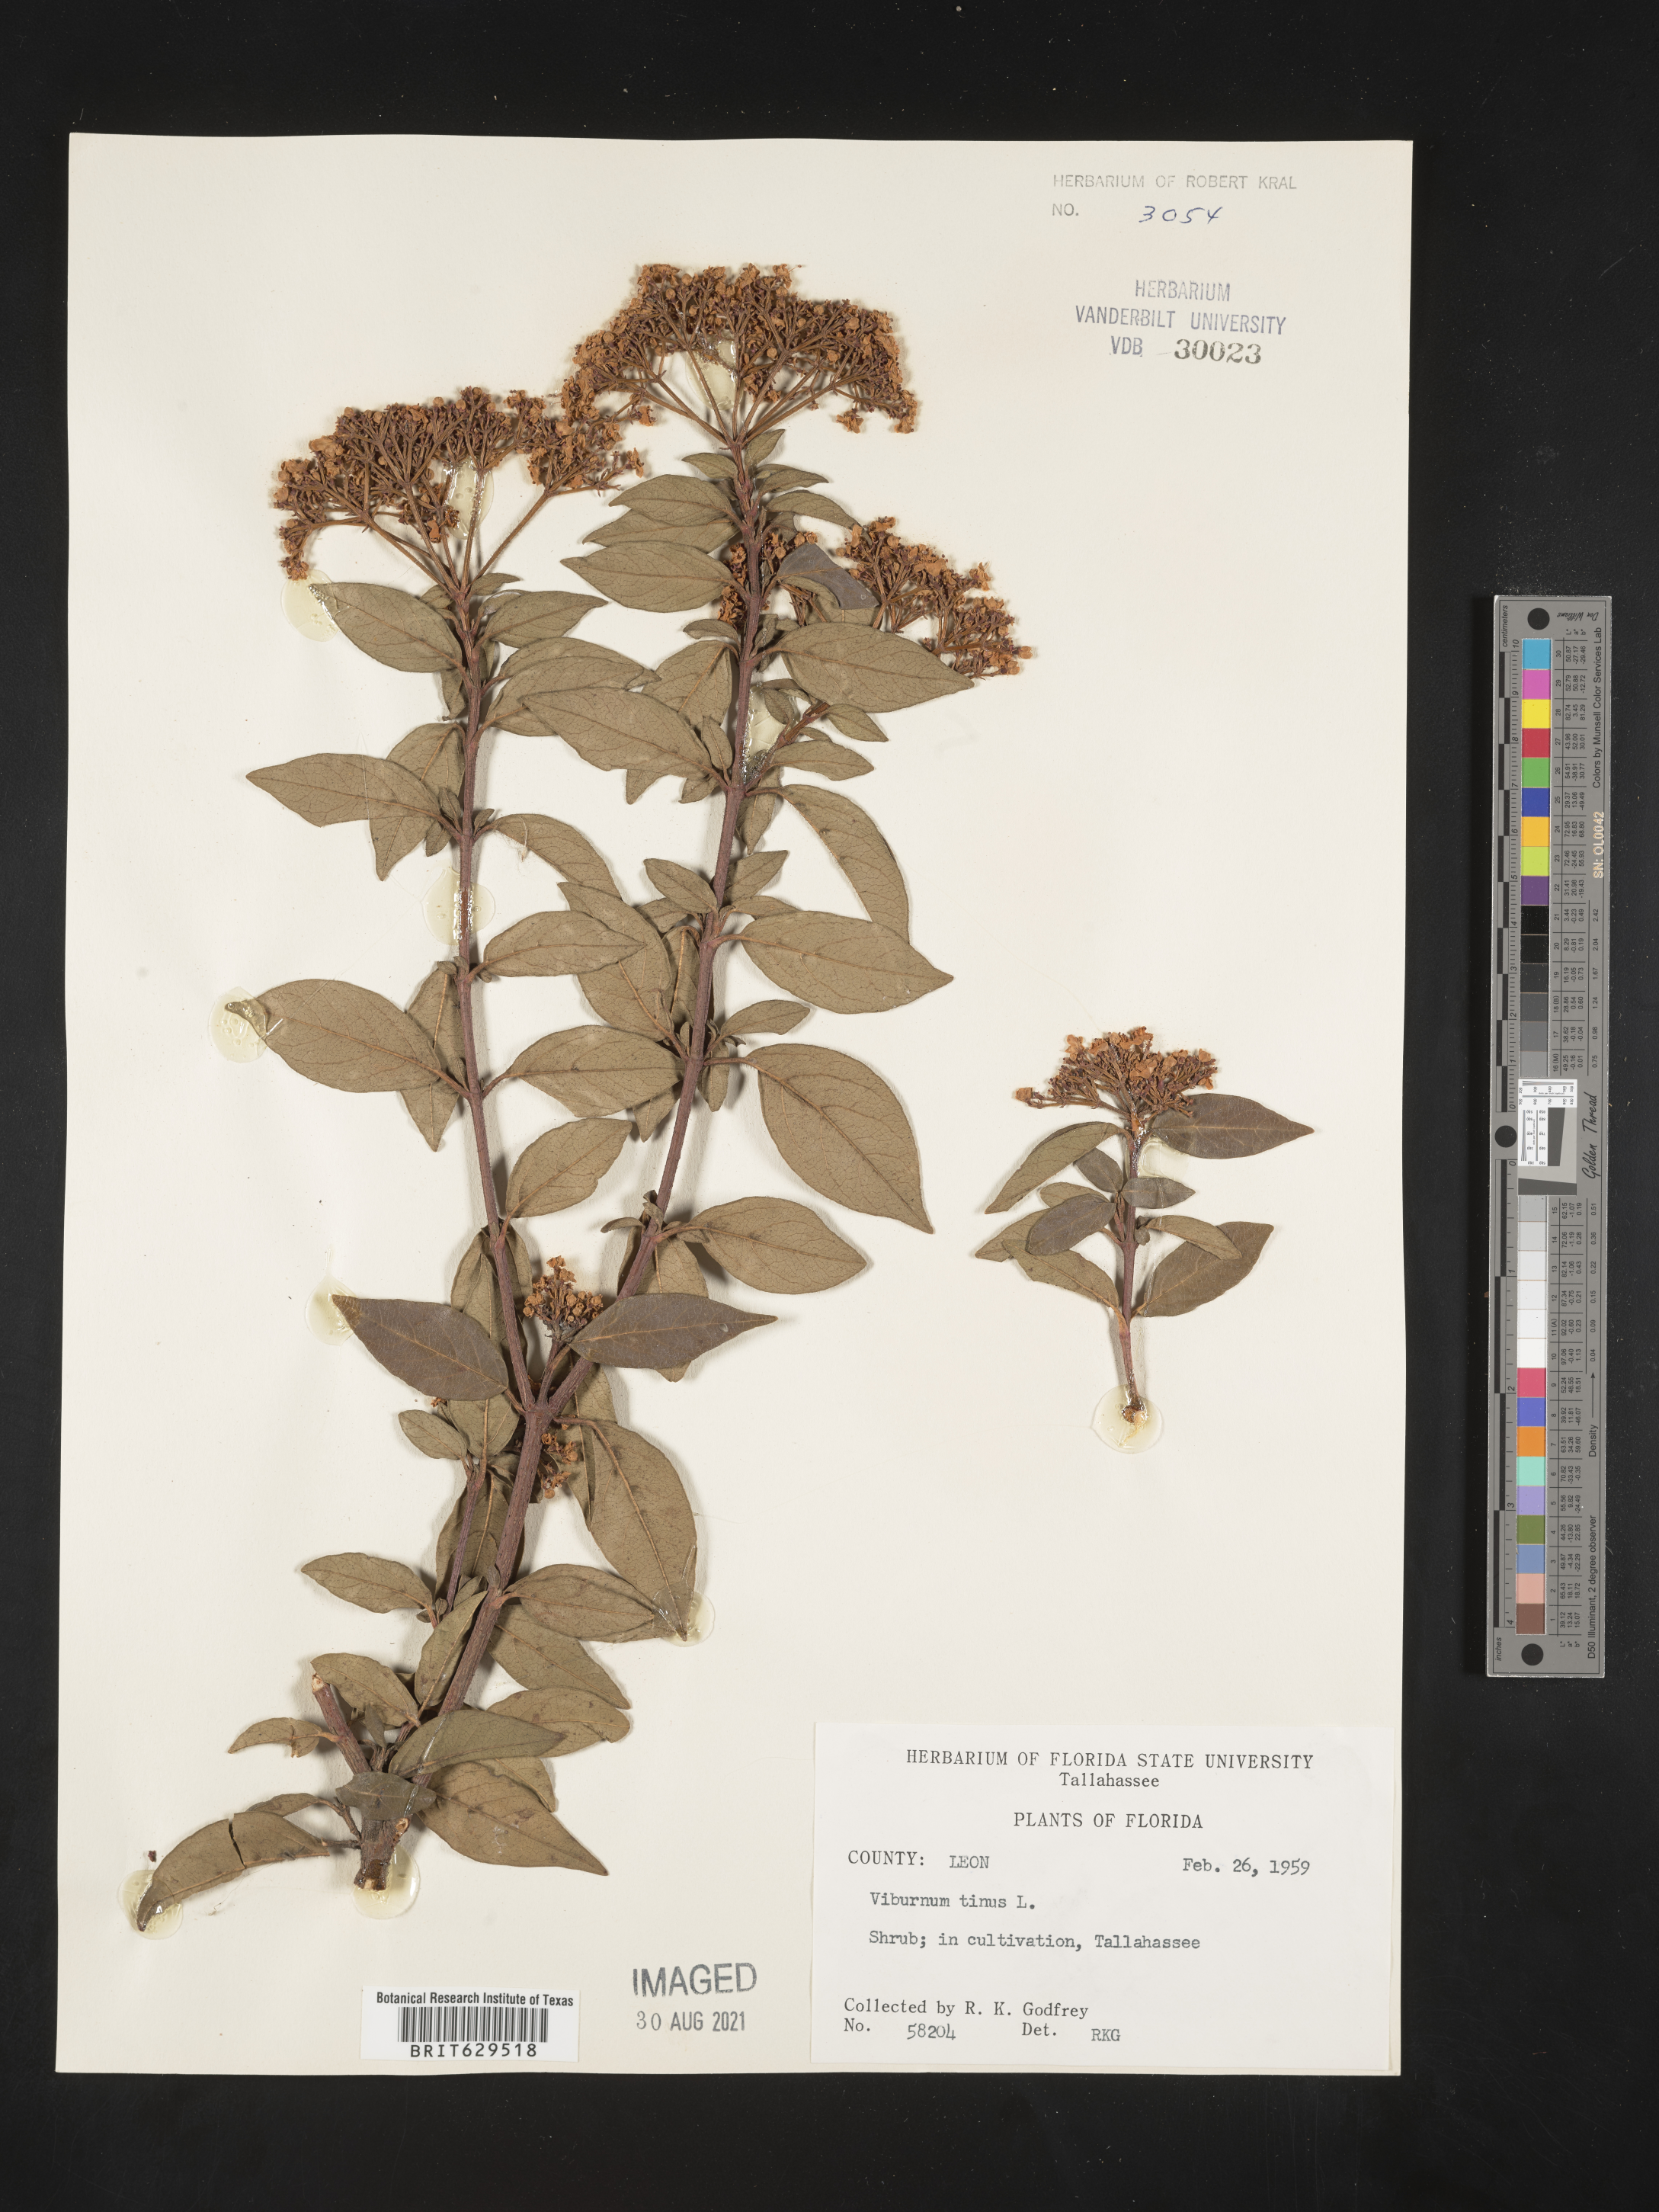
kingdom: Plantae
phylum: Tracheophyta
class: Magnoliopsida
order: Dipsacales
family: Viburnaceae
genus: Viburnum
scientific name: Viburnum tinus
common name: Laurustinus
